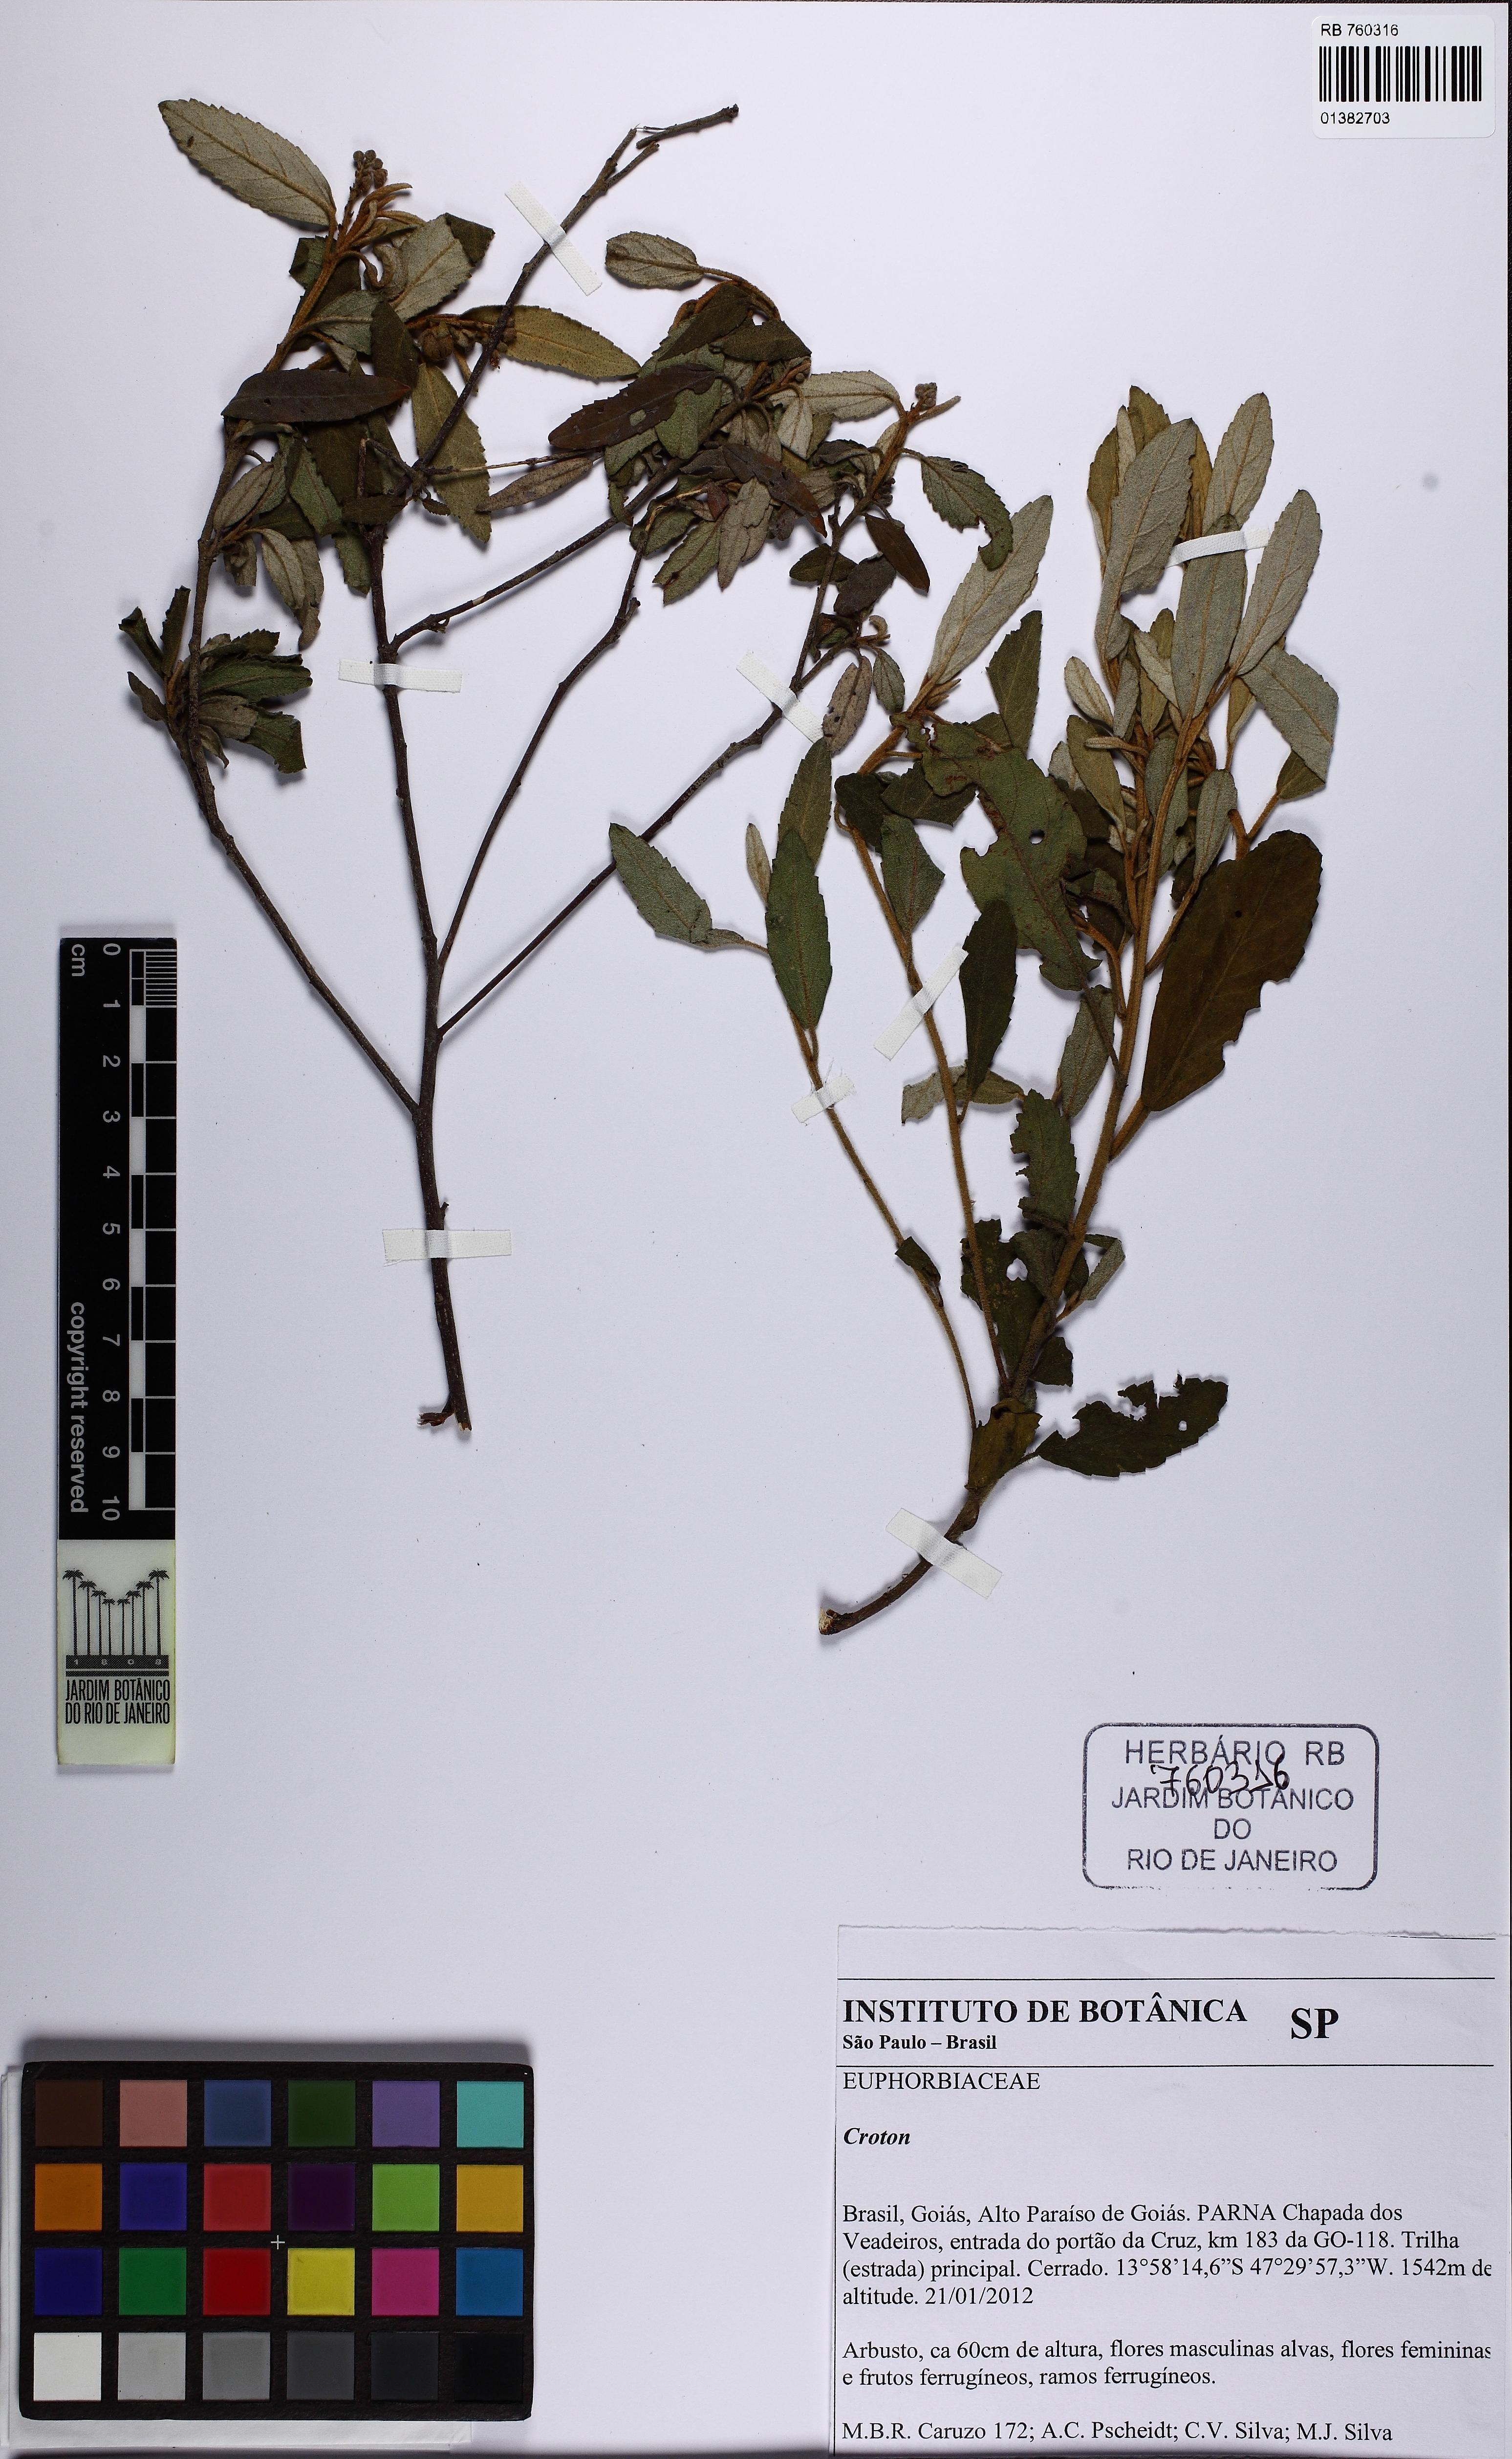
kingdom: Plantae
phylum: Tracheophyta
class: Magnoliopsida
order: Malpighiales
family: Euphorbiaceae
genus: Croton
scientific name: Croton siderophyllus
